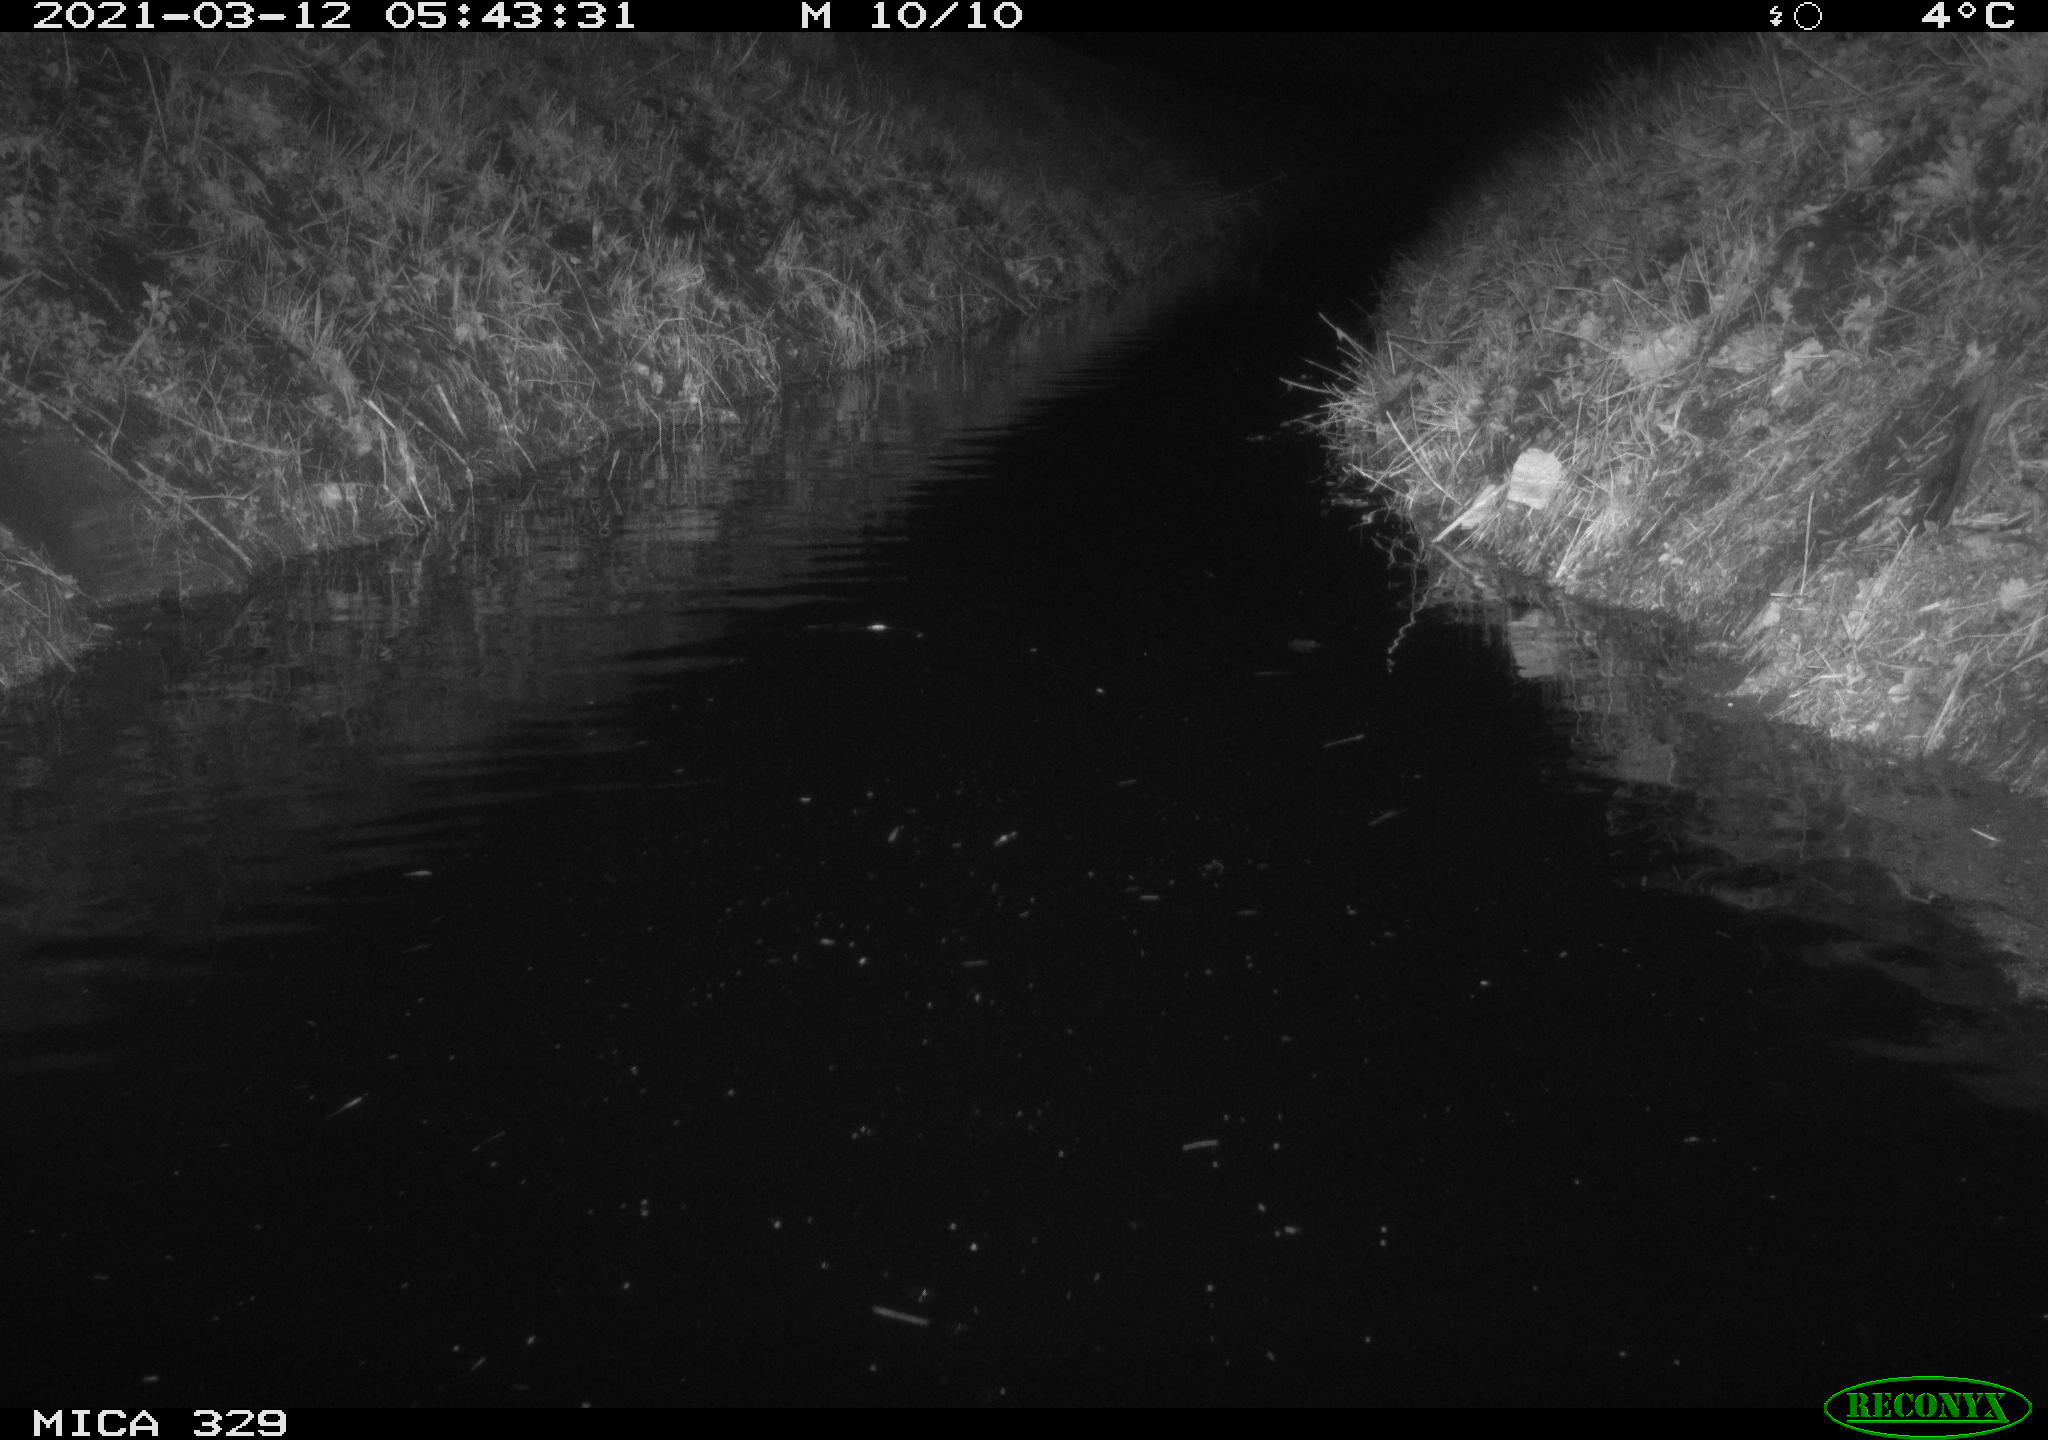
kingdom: Animalia
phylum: Chordata
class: Mammalia
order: Rodentia
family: Cricetidae
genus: Ondatra
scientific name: Ondatra zibethicus
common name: Muskrat
